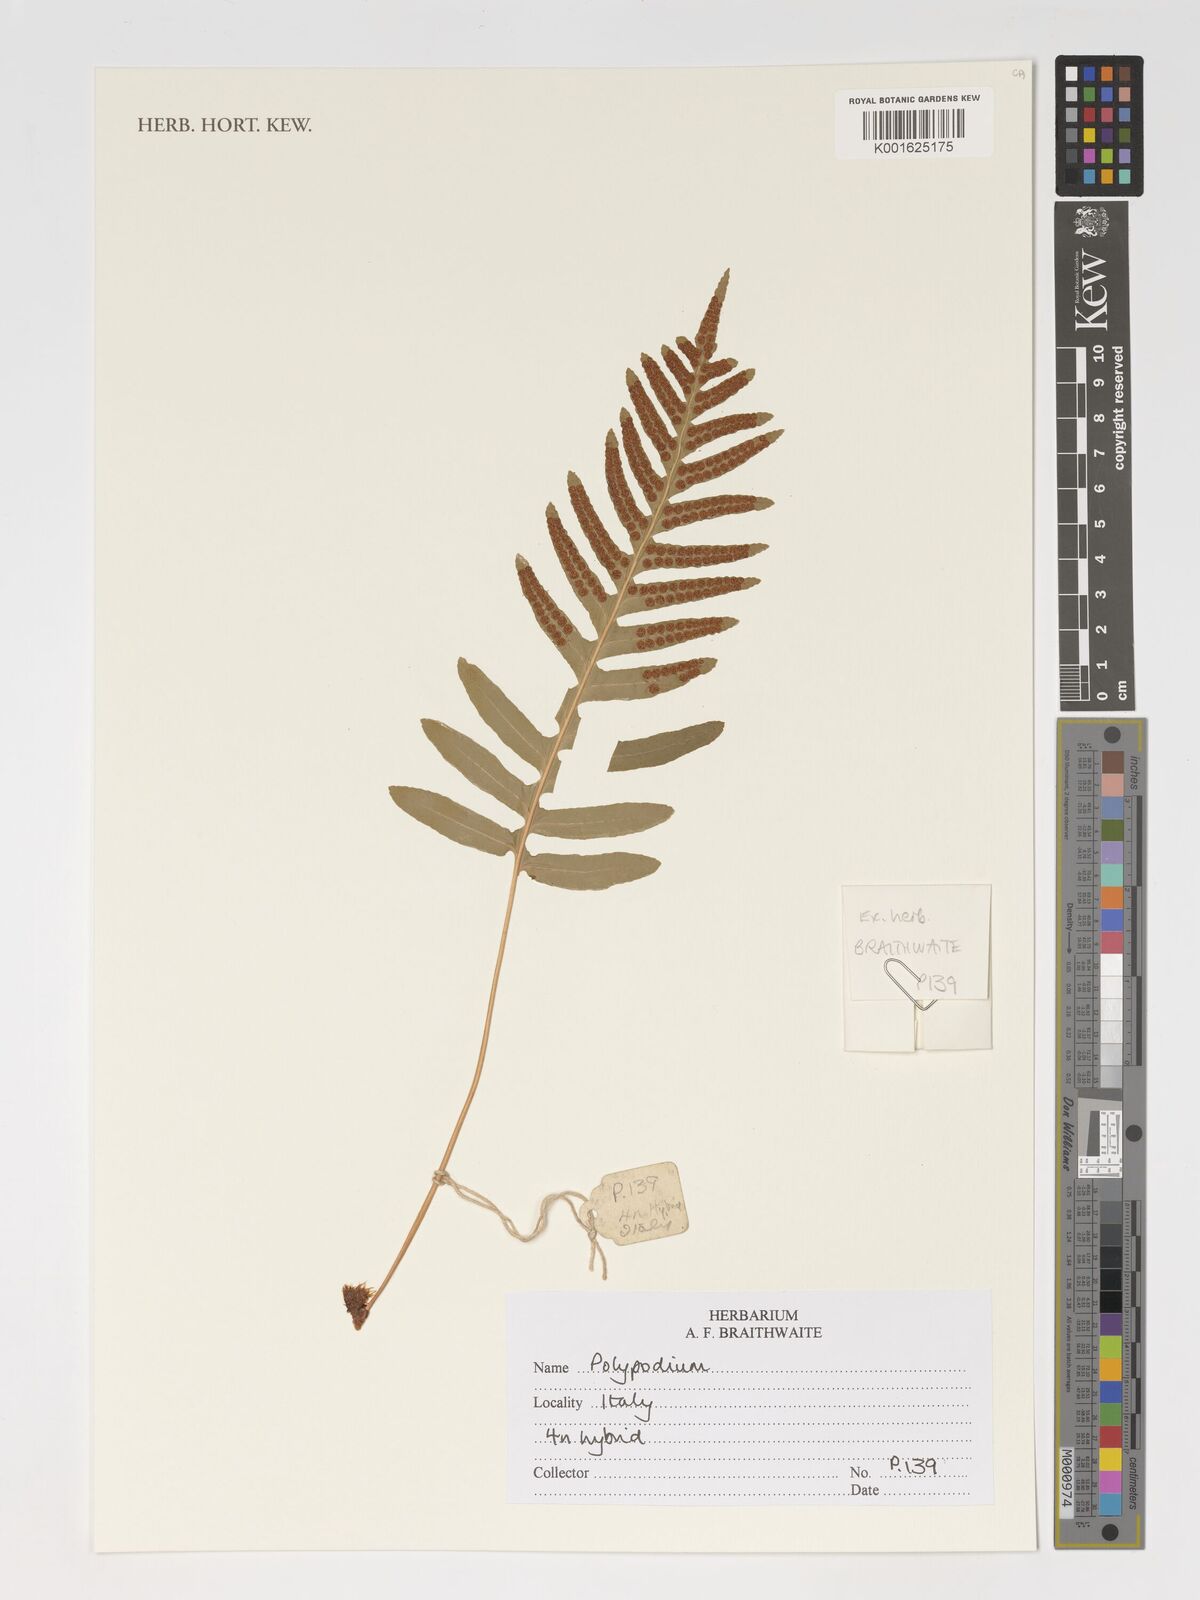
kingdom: Plantae
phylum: Tracheophyta
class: Polypodiopsida
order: Polypodiales
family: Polypodiaceae
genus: Polypodium
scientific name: Polypodium
